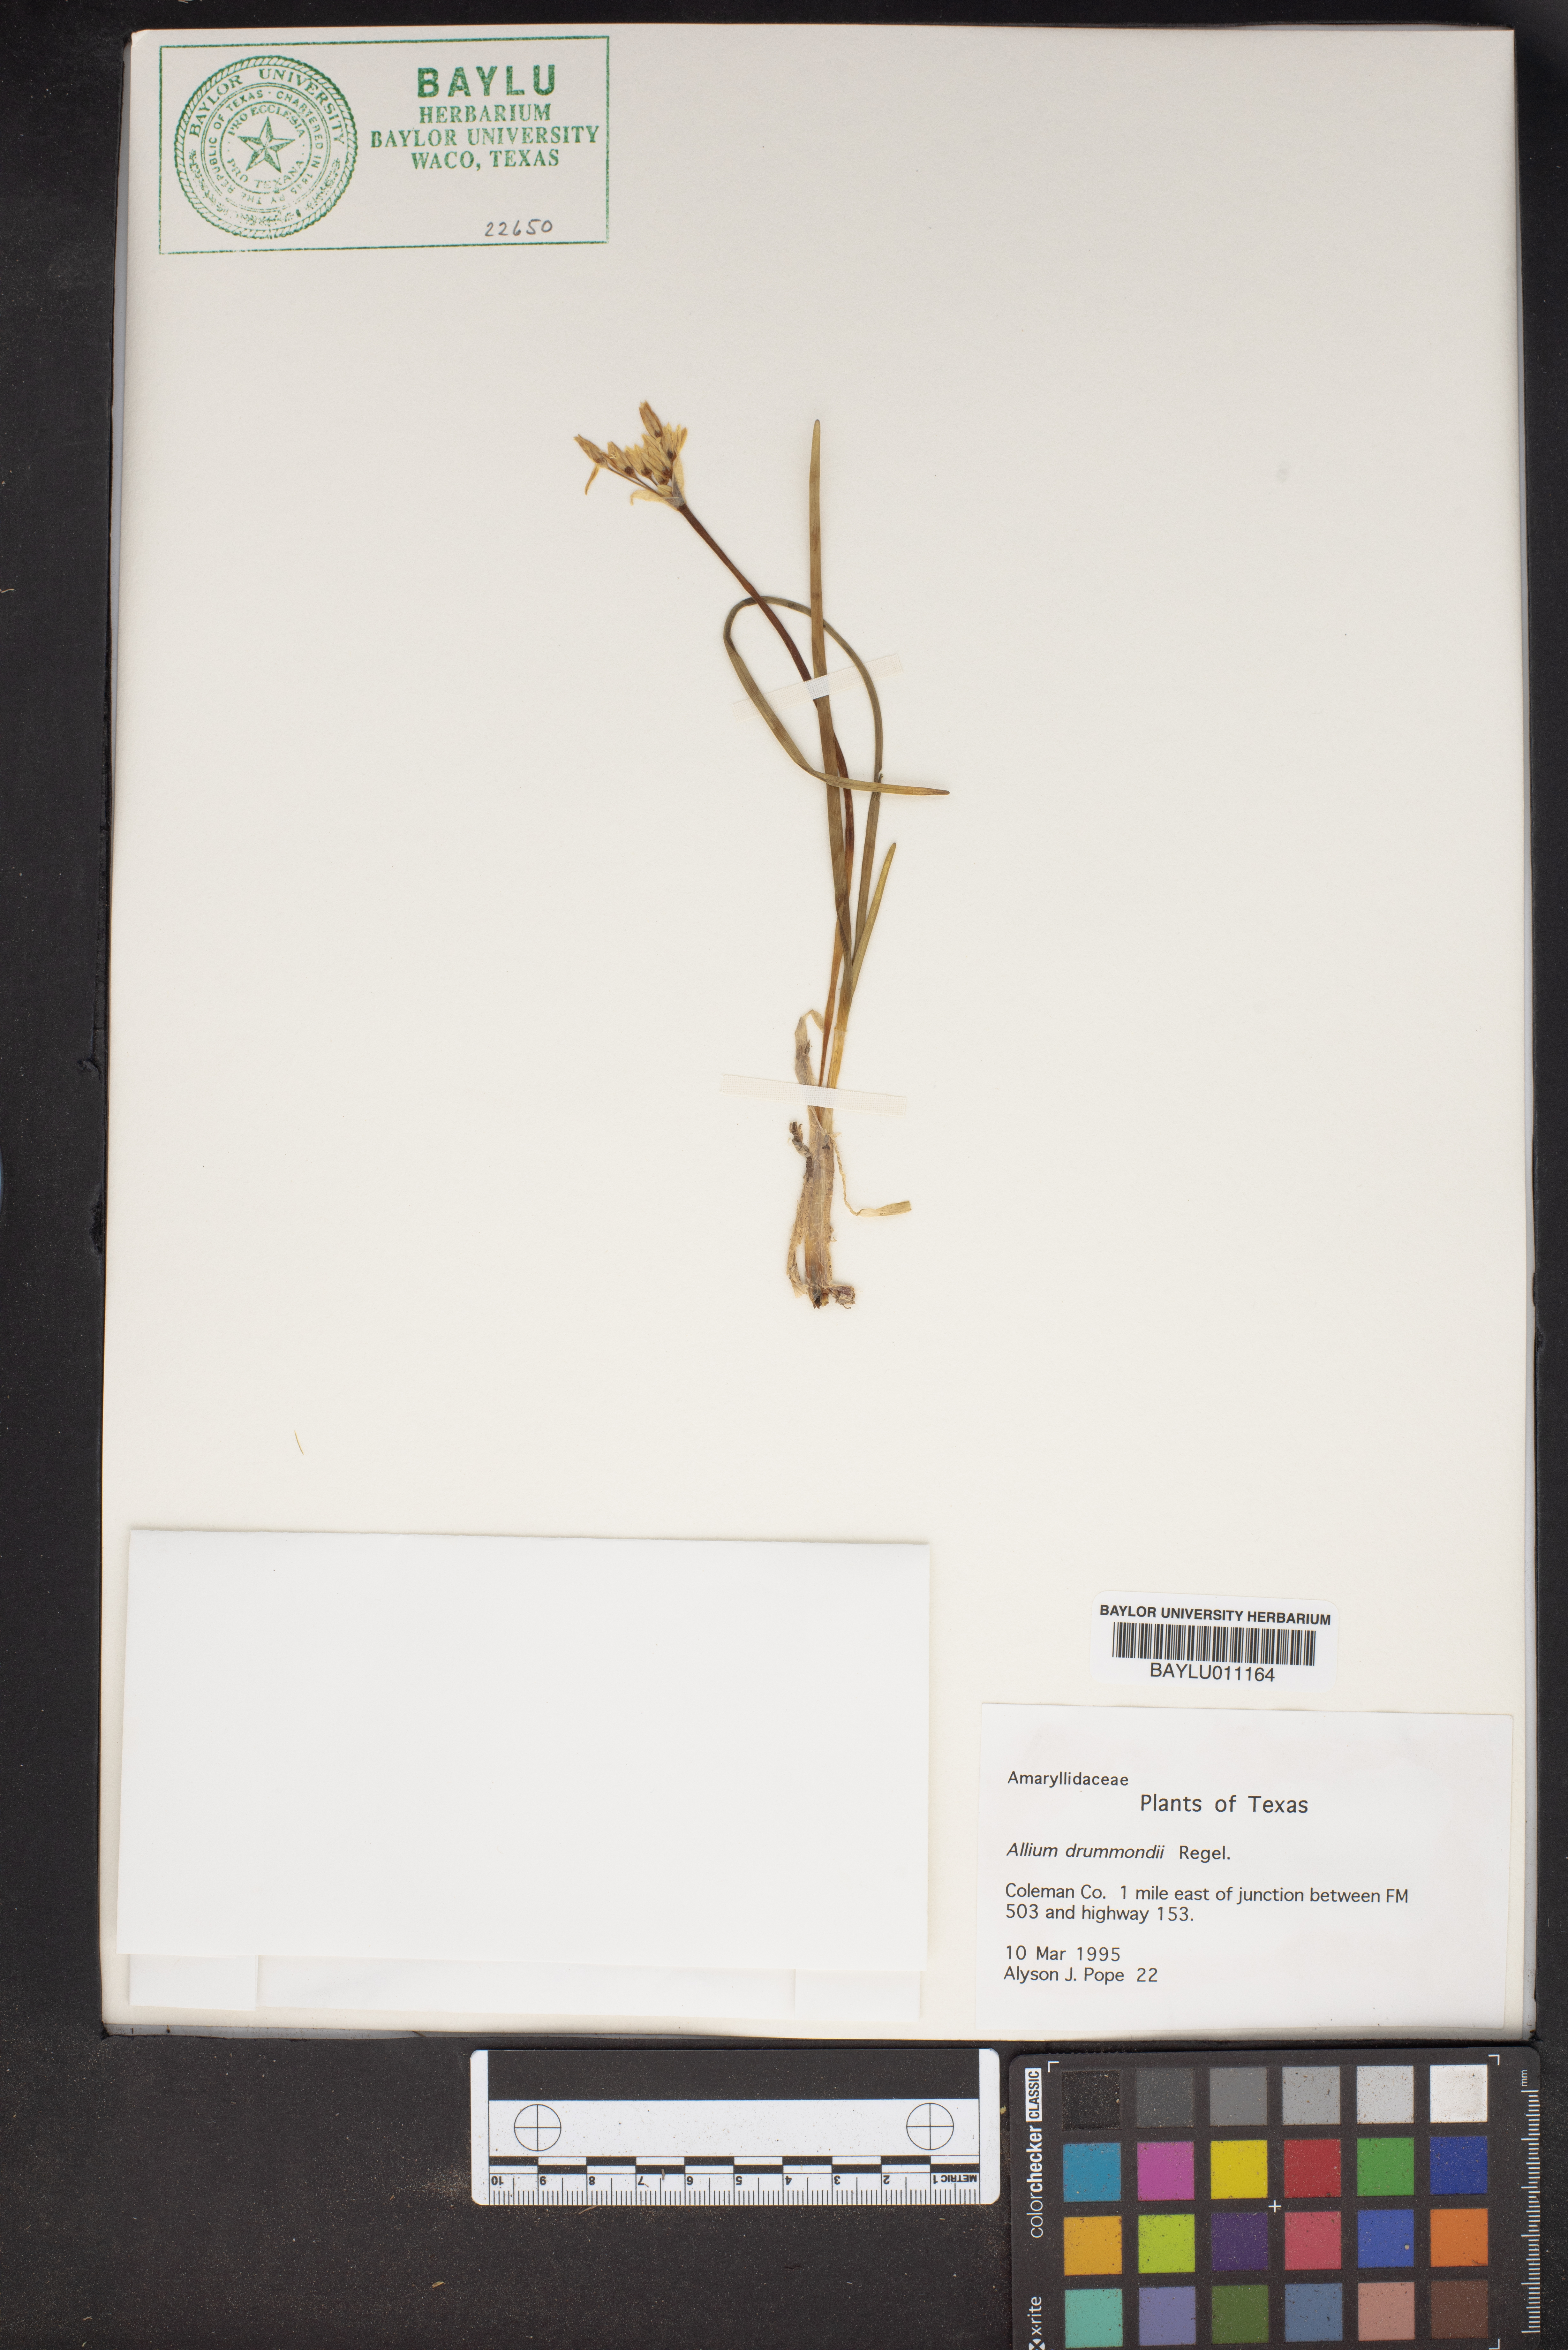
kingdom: Plantae
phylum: Tracheophyta
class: Liliopsida
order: Asparagales
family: Amaryllidaceae
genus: Allium
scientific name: Allium drummondii
